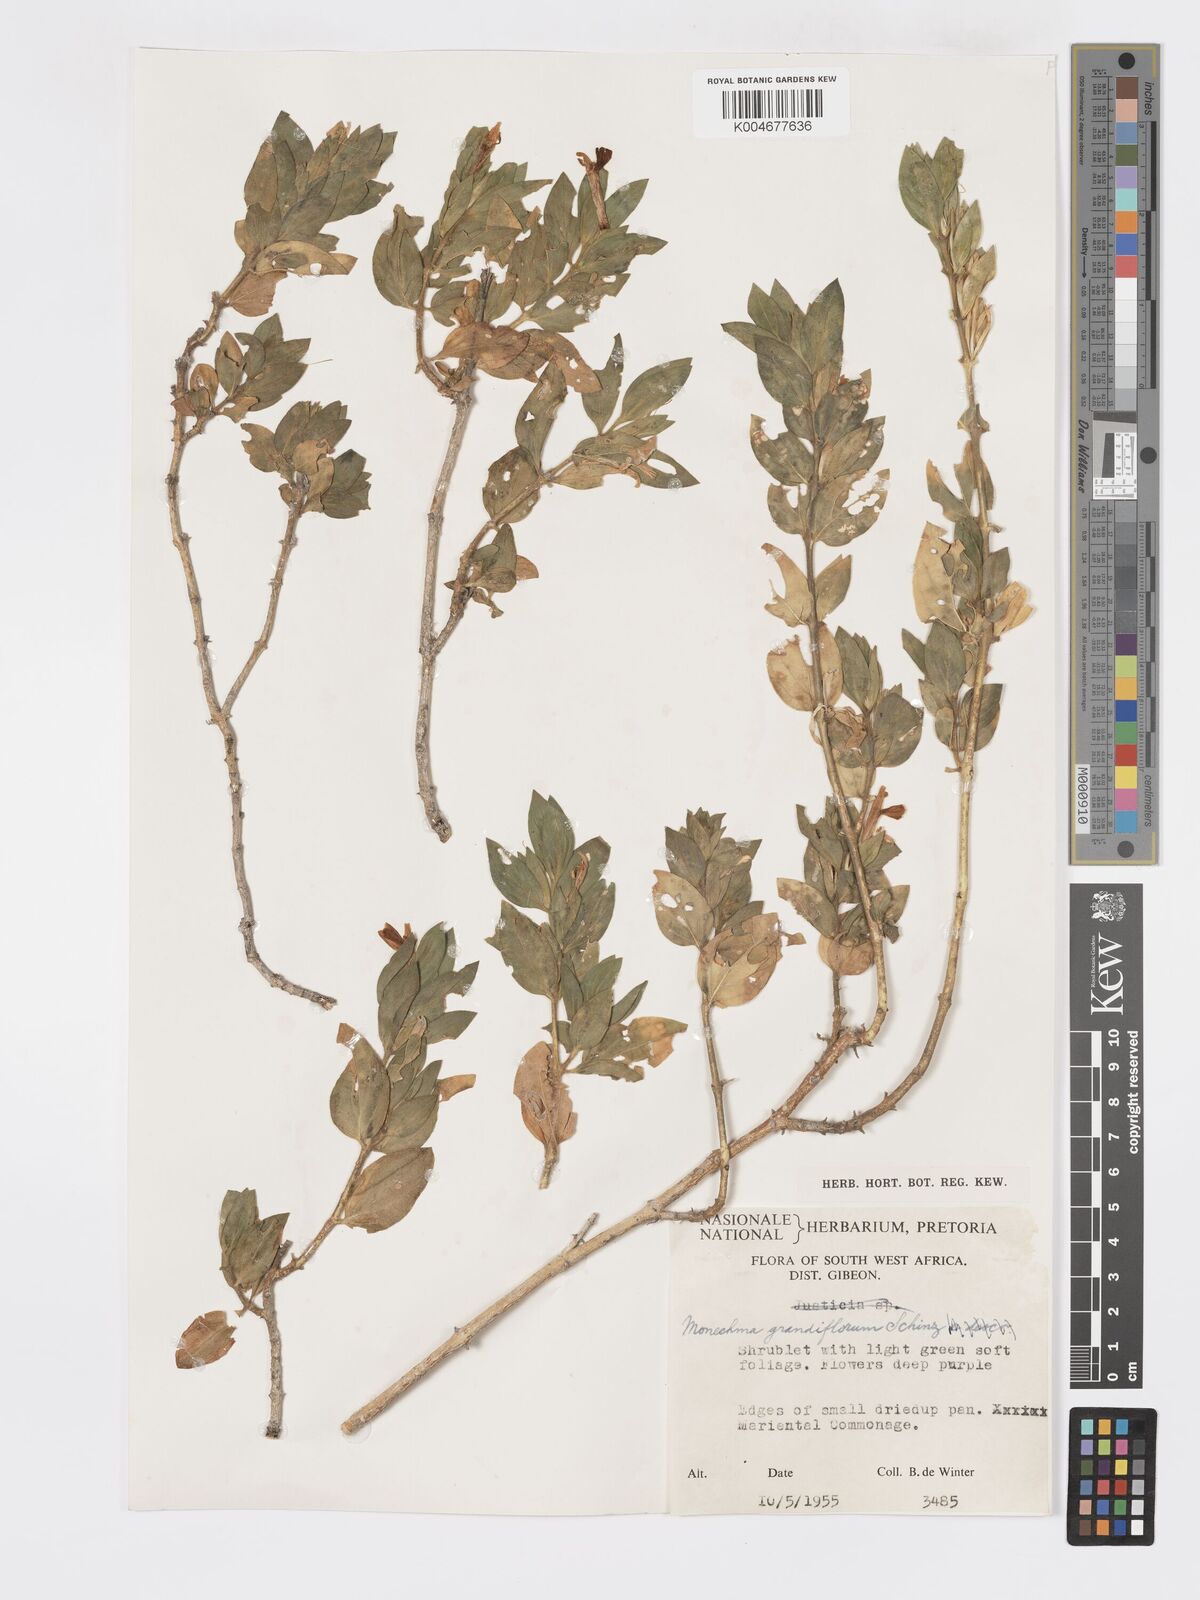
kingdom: Plantae
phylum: Tracheophyta
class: Magnoliopsida
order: Lamiales
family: Acanthaceae
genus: Pogonospermum
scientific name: Pogonospermum
